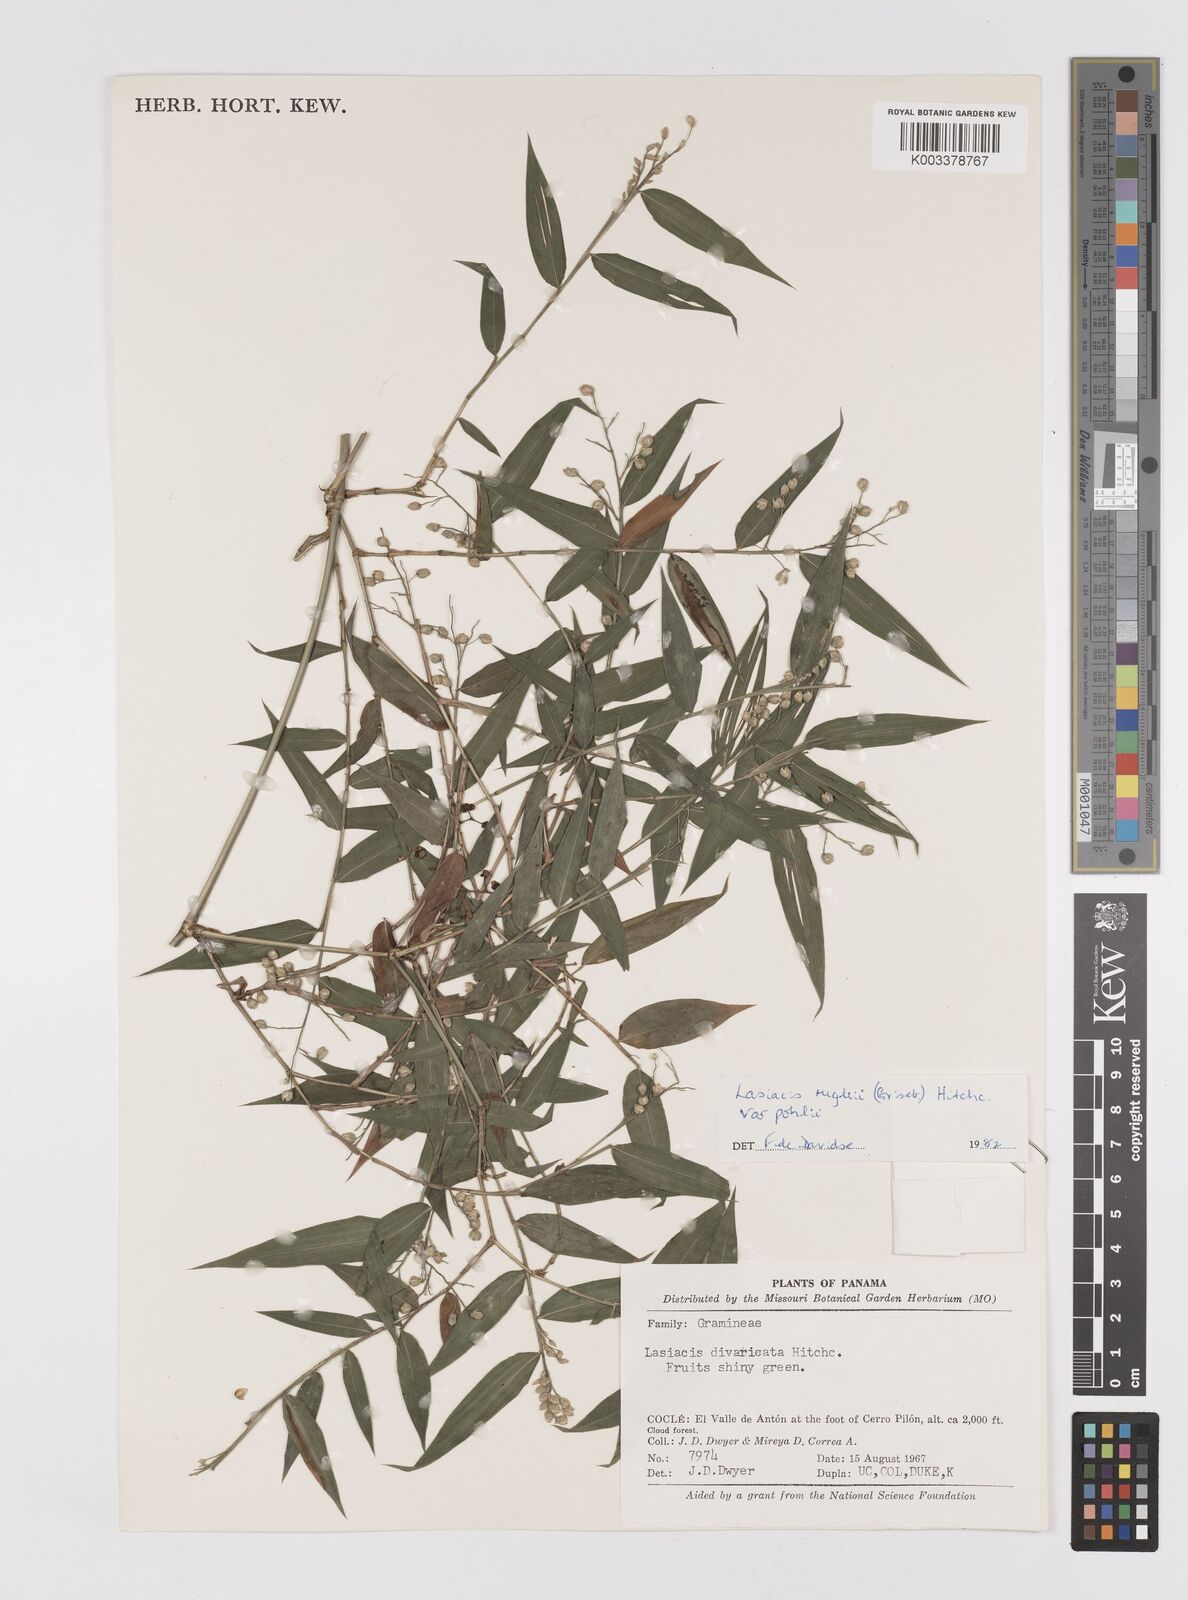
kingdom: Plantae
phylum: Tracheophyta
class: Liliopsida
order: Poales
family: Poaceae
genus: Lasiacis
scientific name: Lasiacis rugelii
